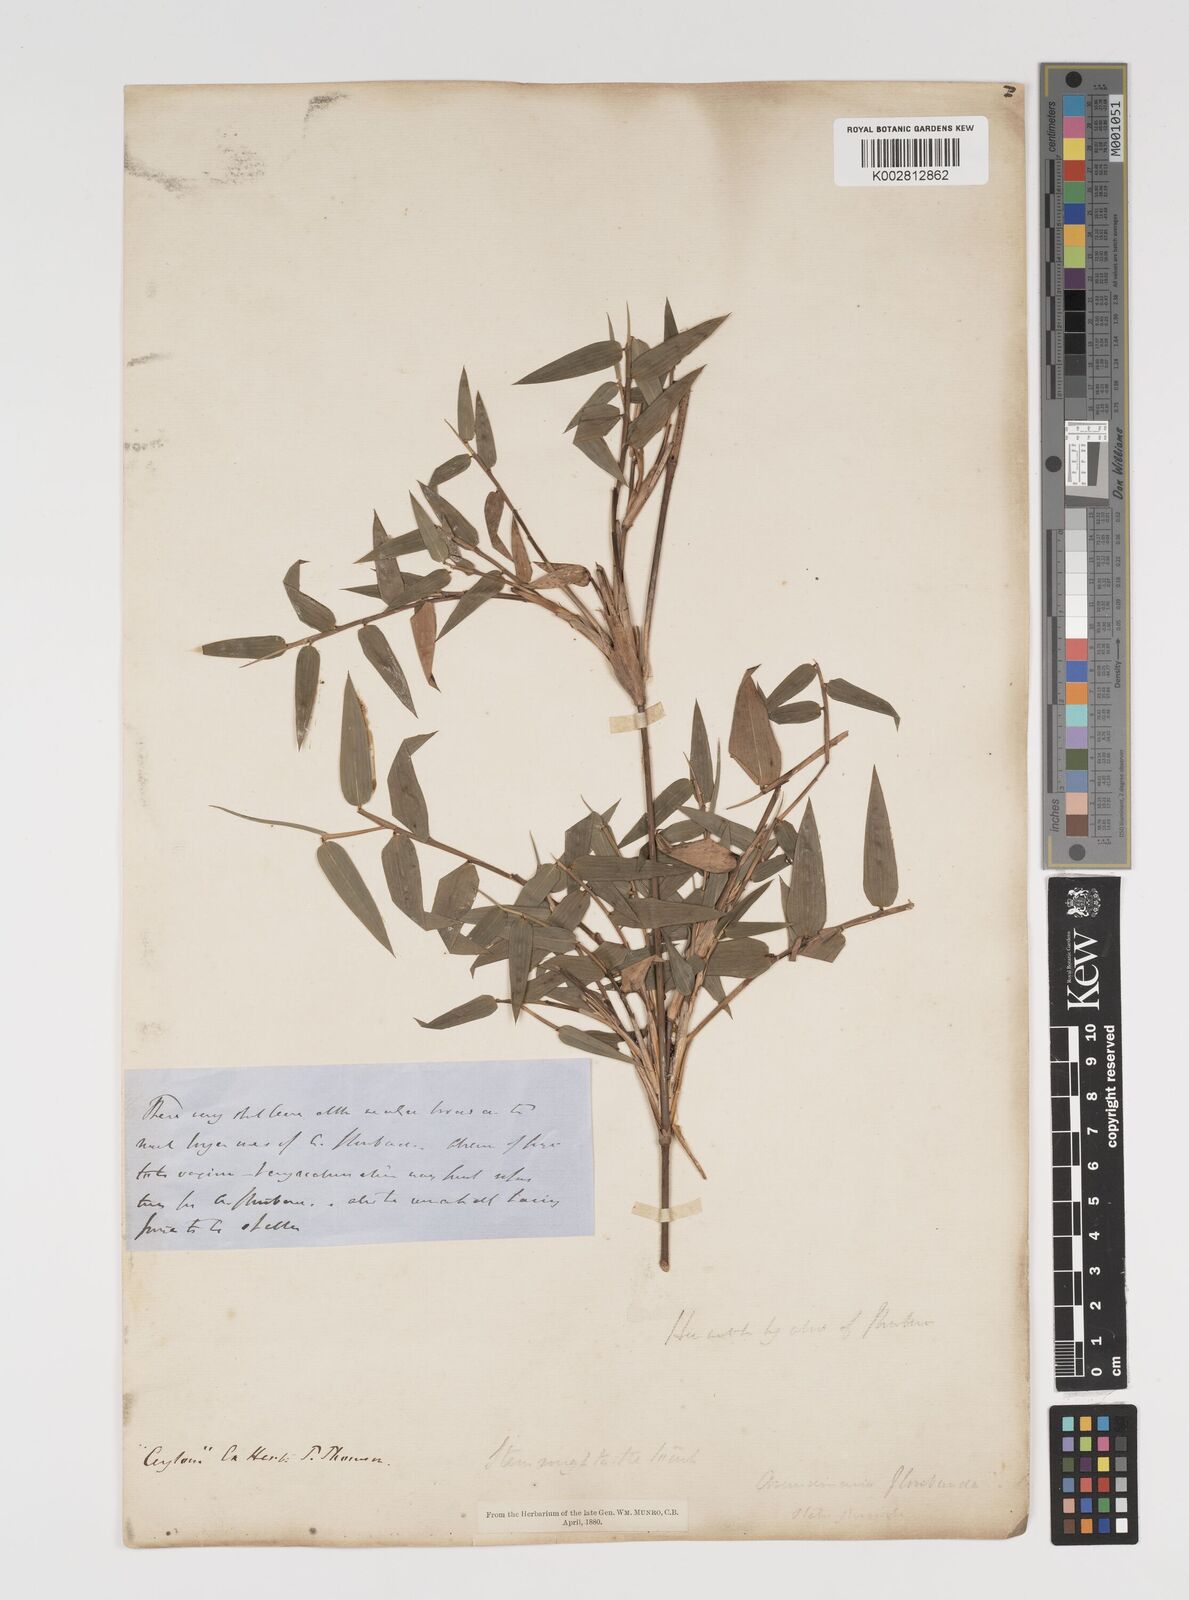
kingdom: Plantae
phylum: Tracheophyta
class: Liliopsida
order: Poales
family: Poaceae
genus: Kuruna
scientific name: Kuruna scandens
